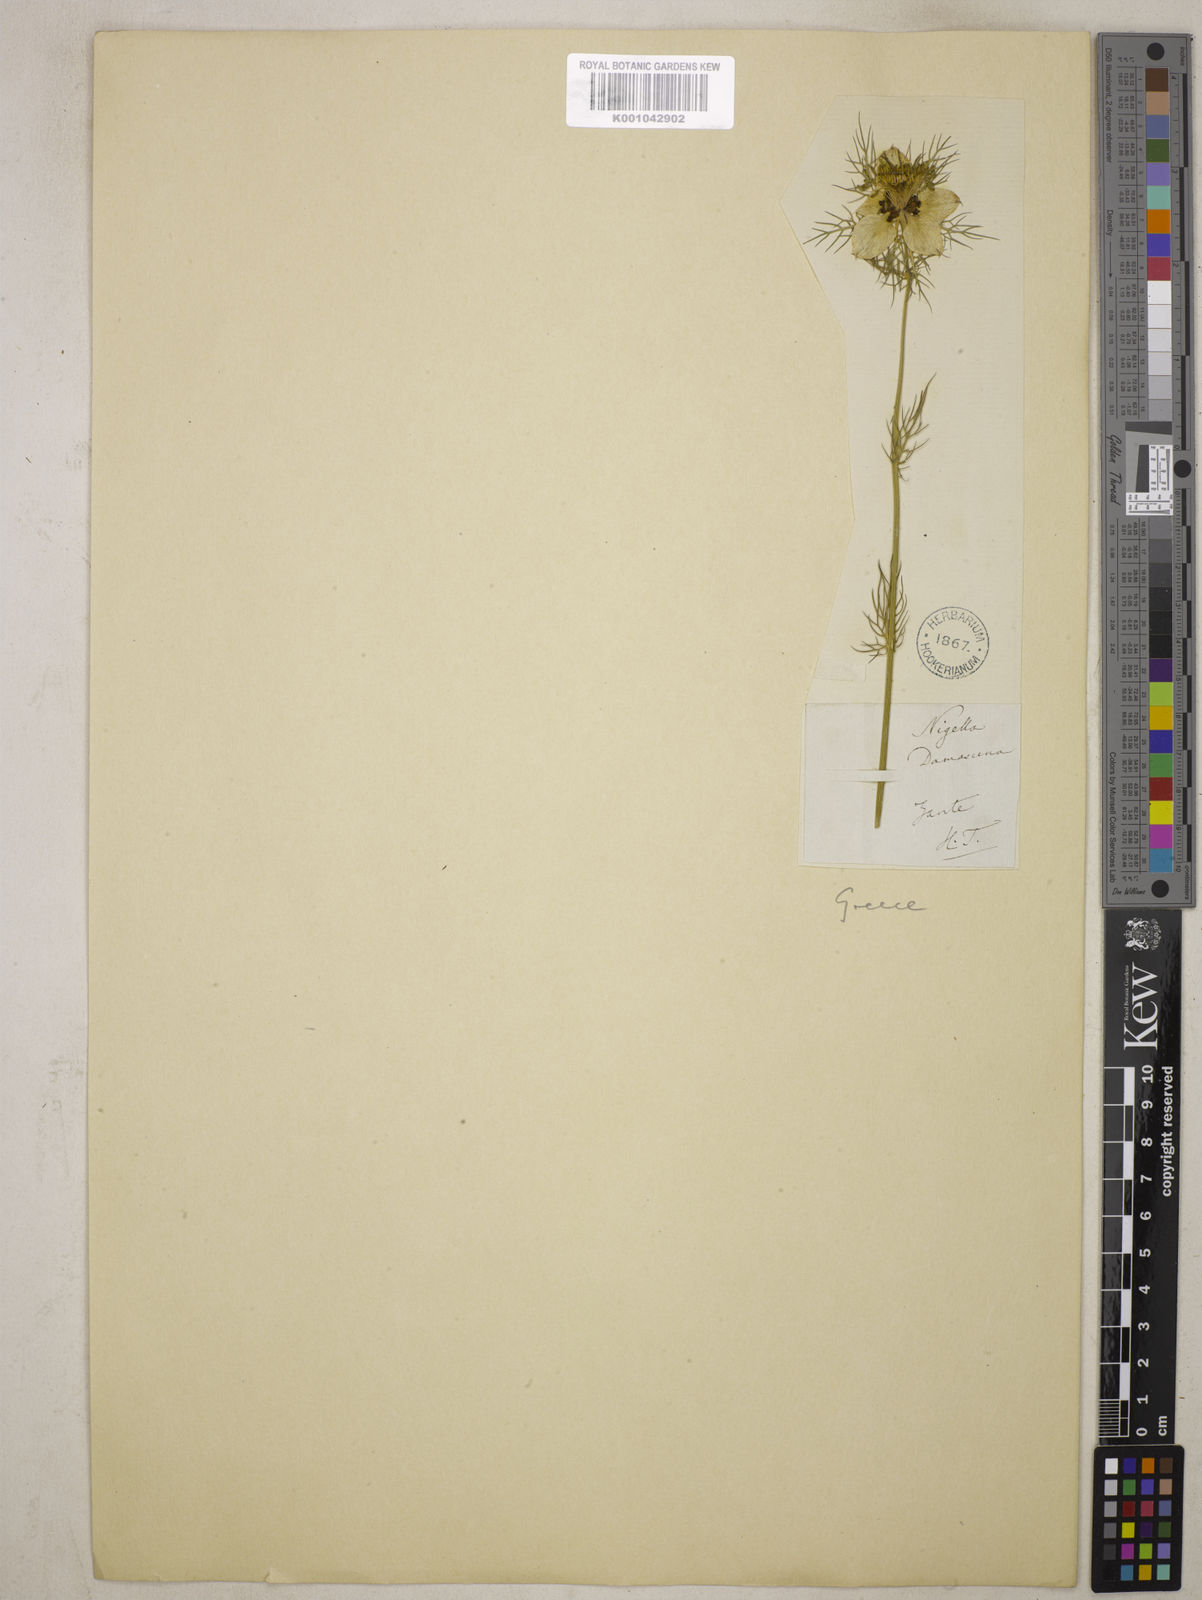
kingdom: Plantae
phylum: Tracheophyta
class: Magnoliopsida
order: Ranunculales
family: Ranunculaceae
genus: Nigella
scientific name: Nigella damascena
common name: Love-in-a-mist
